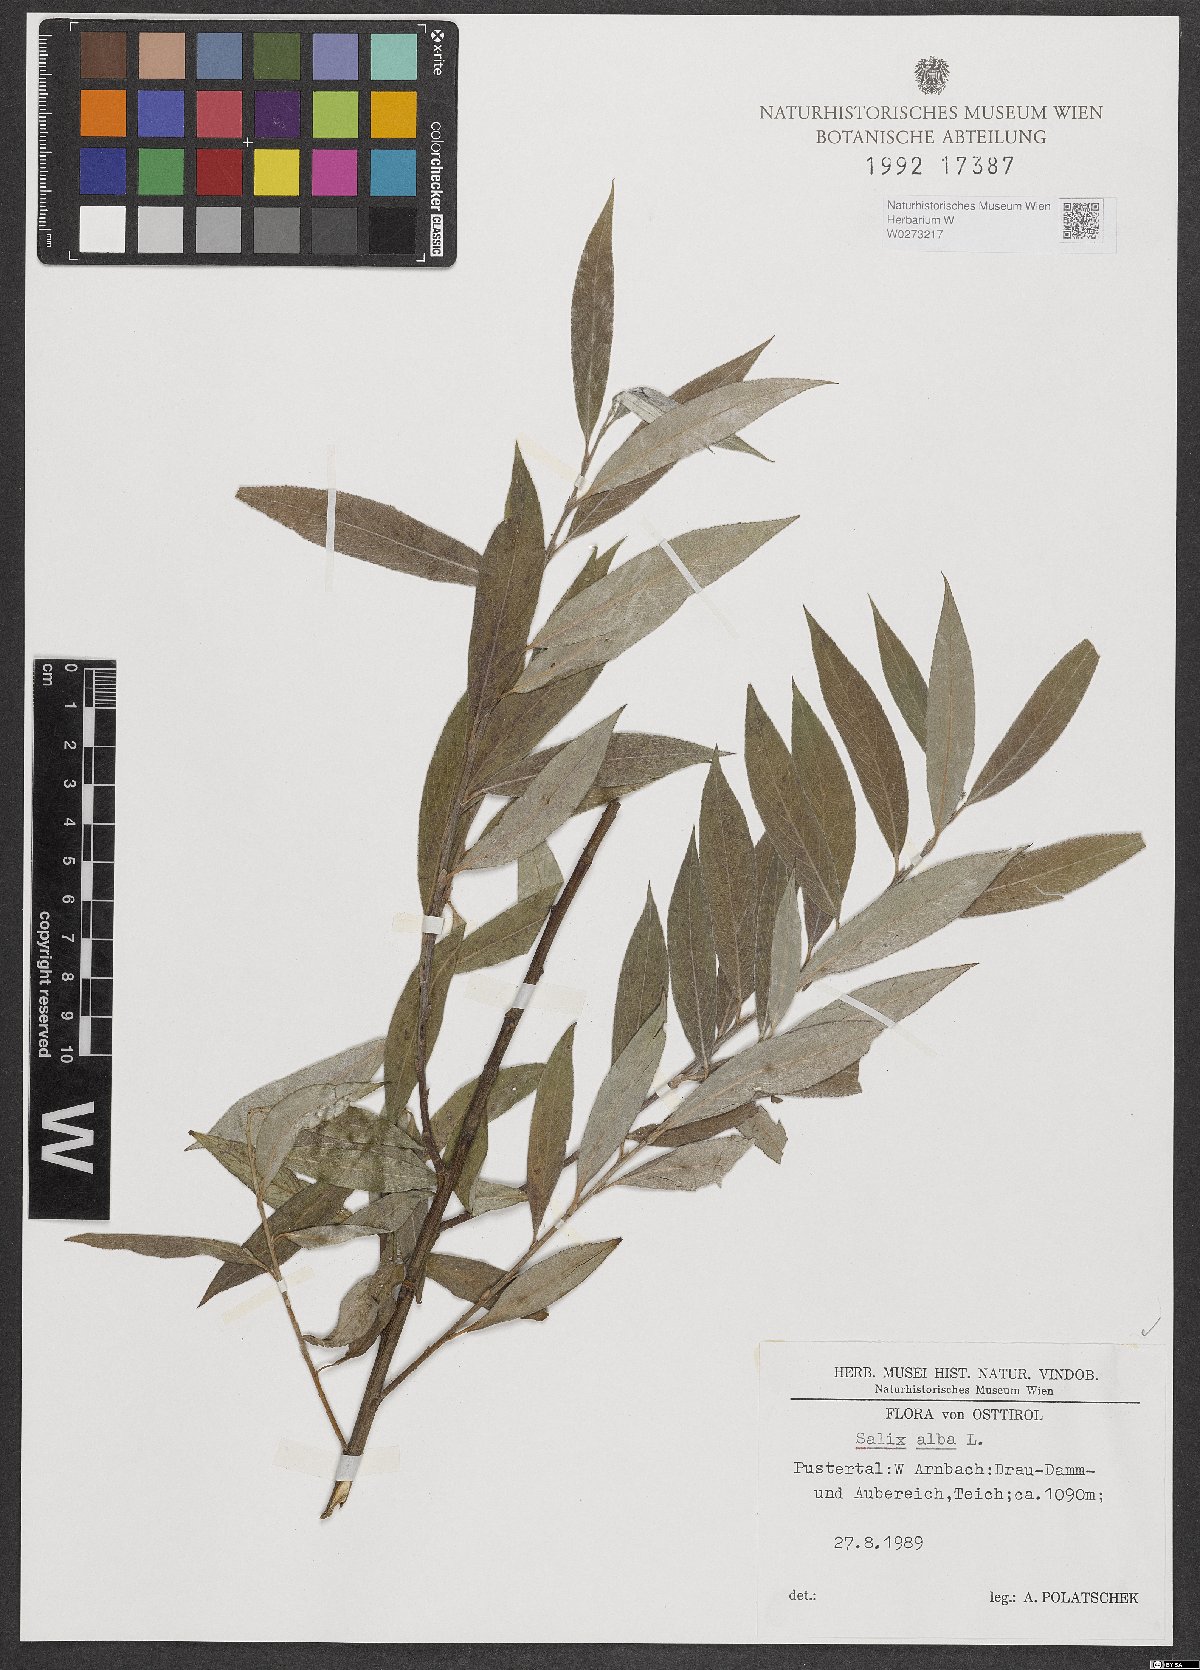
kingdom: Plantae
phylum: Tracheophyta
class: Magnoliopsida
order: Malpighiales
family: Salicaceae
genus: Salix
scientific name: Salix alba
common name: White willow
